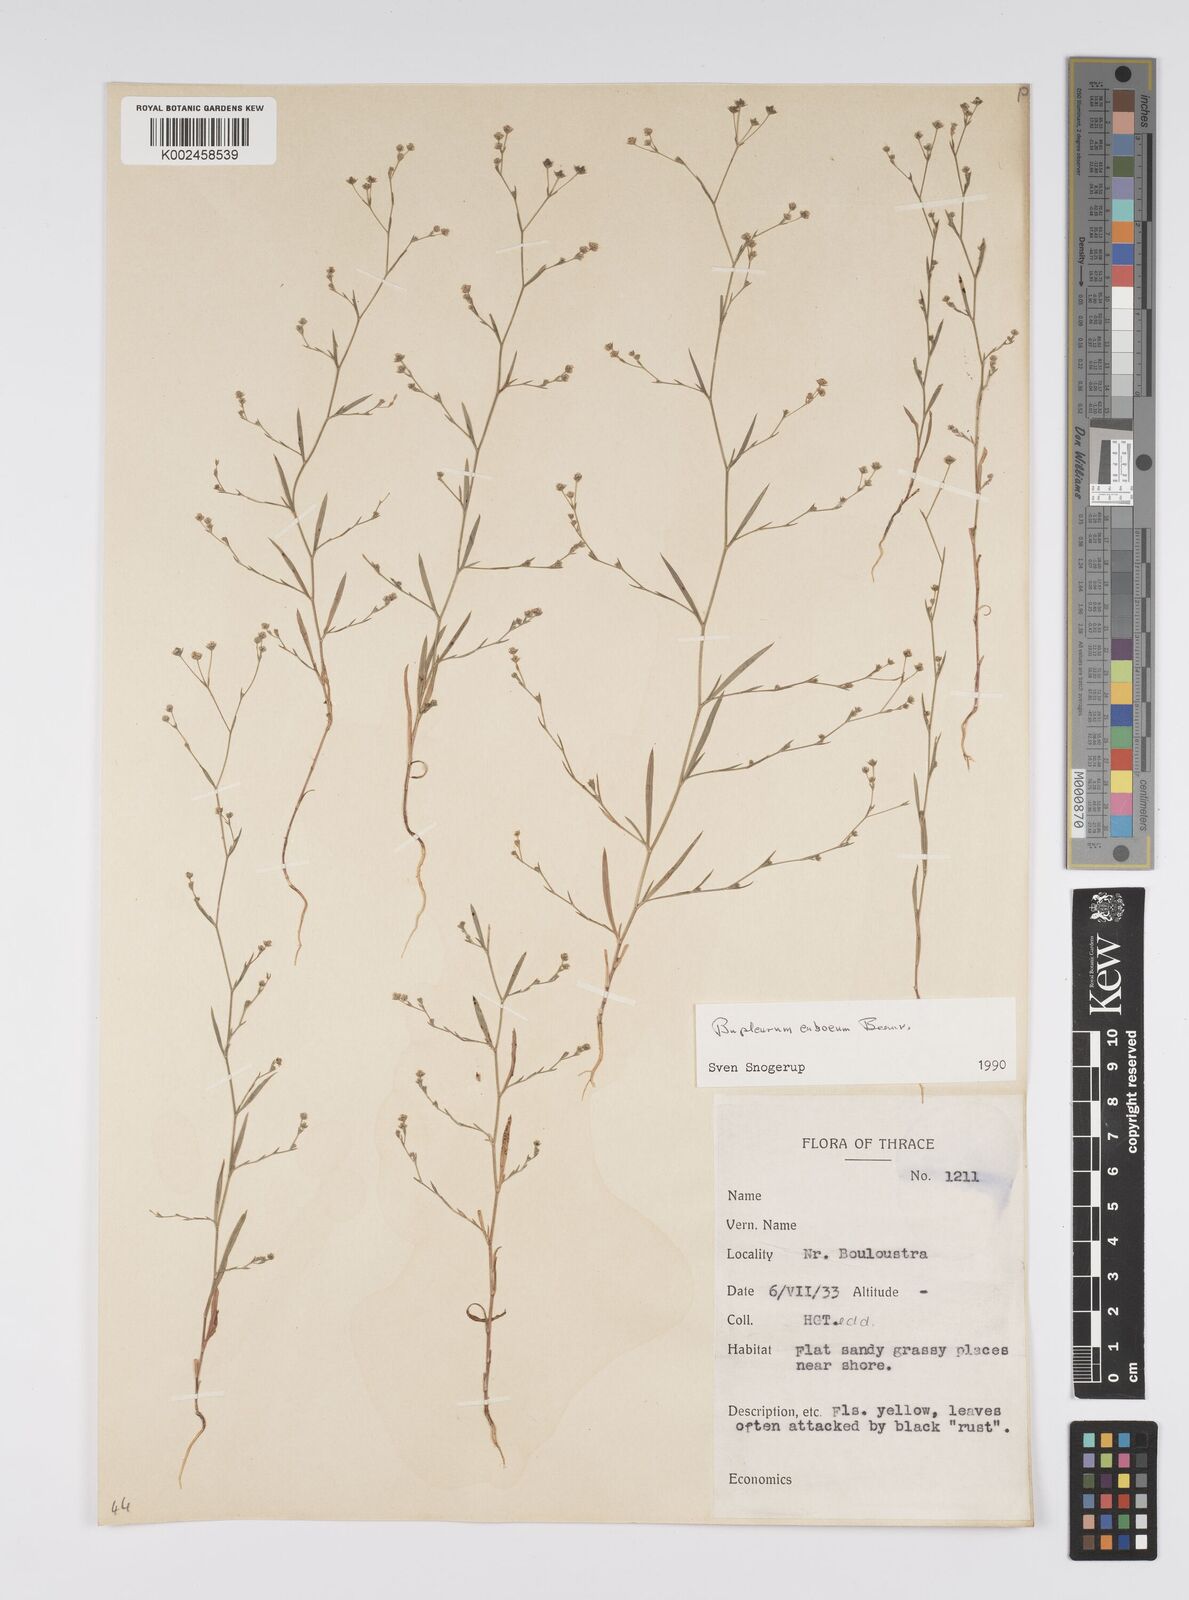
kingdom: Plantae
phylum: Tracheophyta
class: Magnoliopsida
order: Apiales
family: Apiaceae
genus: Bupleurum
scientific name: Bupleurum tenuissimum
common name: Slender hare's-ear
